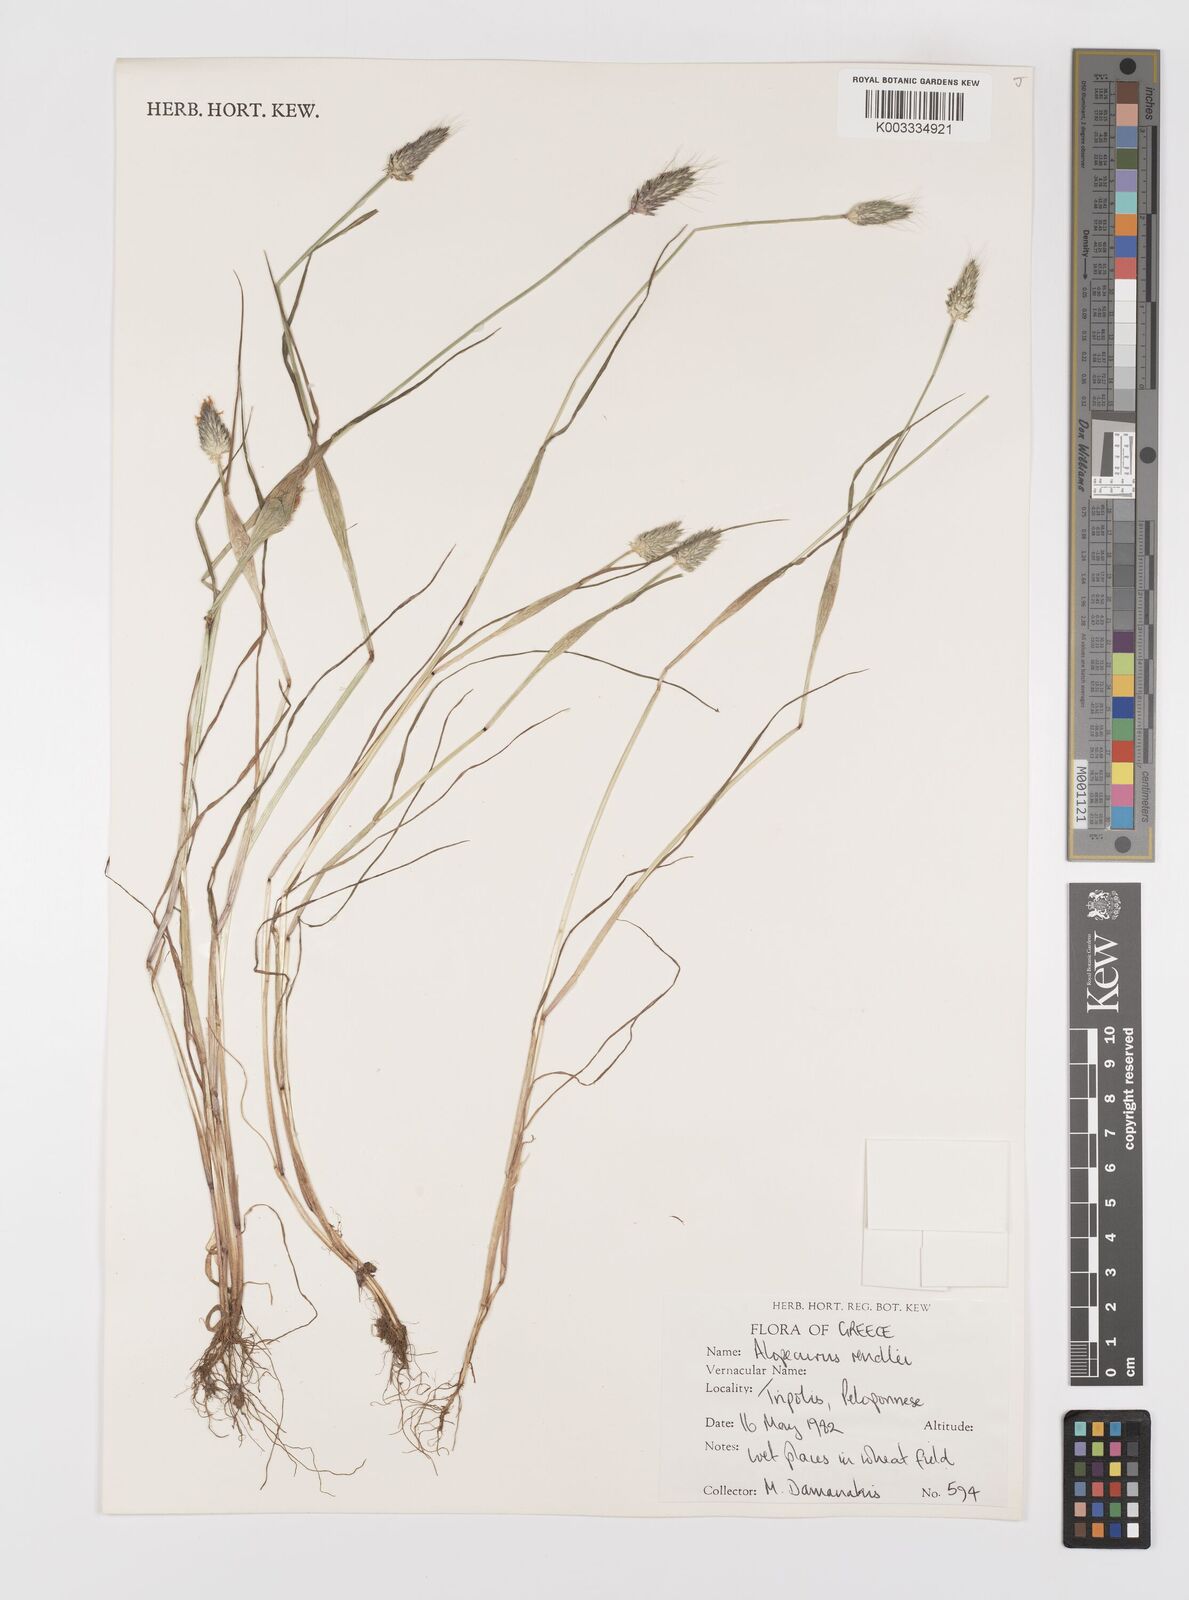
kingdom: Plantae
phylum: Tracheophyta
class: Liliopsida
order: Poales
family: Poaceae
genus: Alopecurus
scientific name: Alopecurus rendlei
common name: Rendle's meadow foxtail
